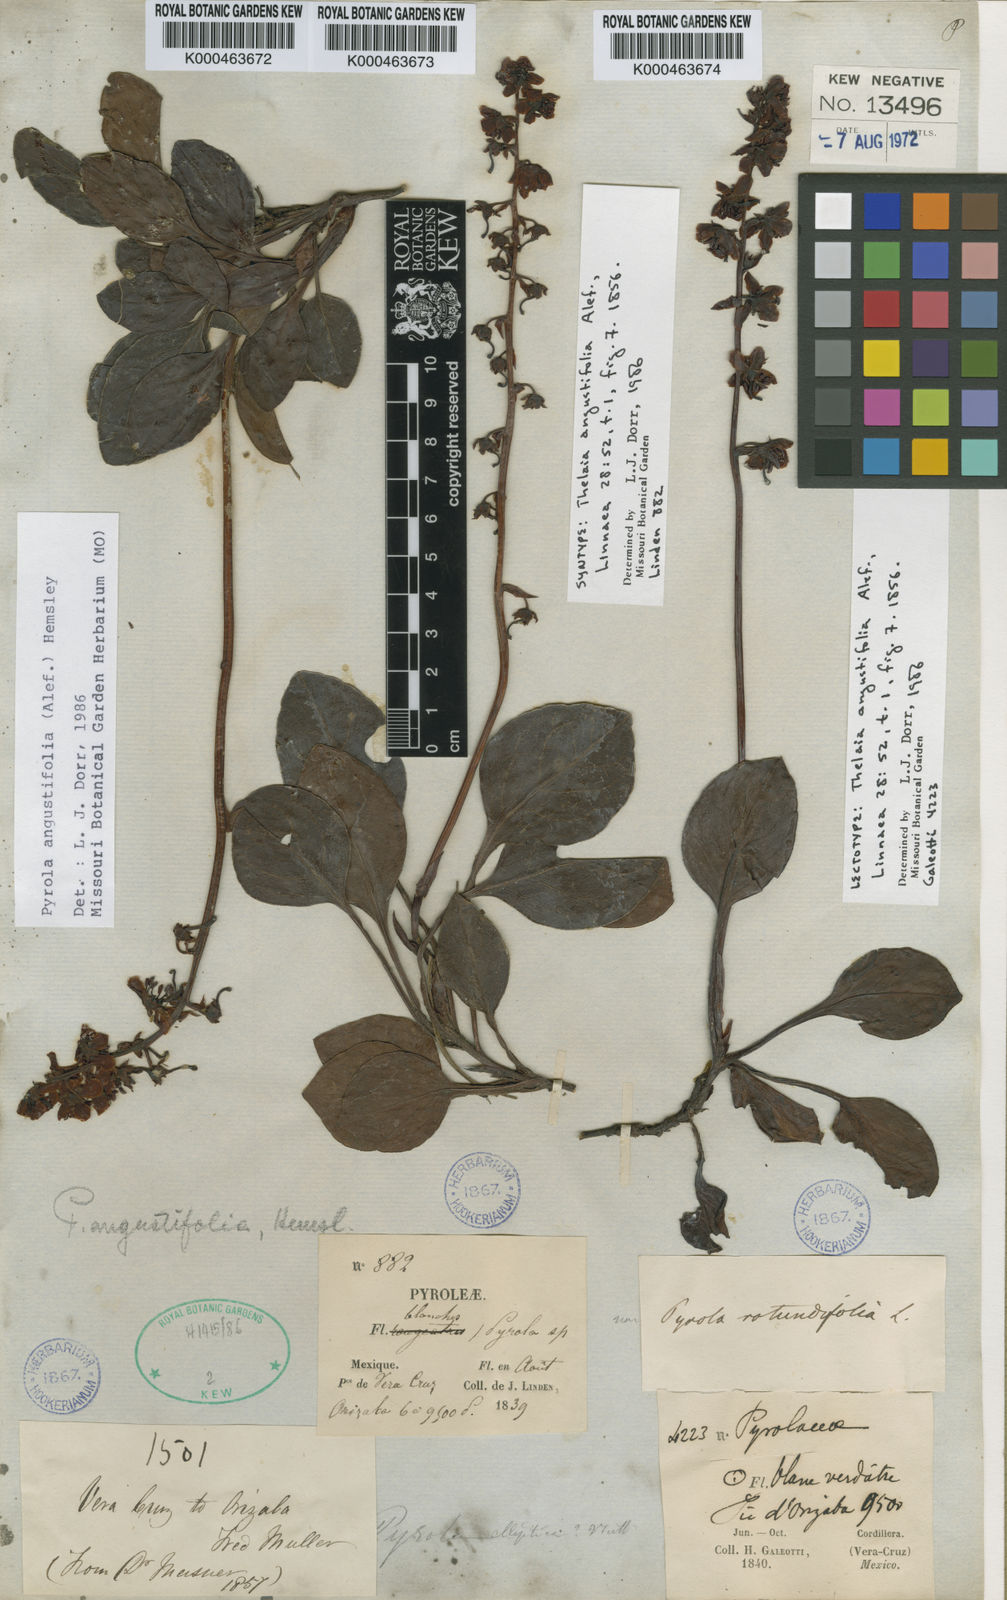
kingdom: Plantae
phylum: Tracheophyta
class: Magnoliopsida
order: Ericales
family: Ericaceae
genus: Pyrola
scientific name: Pyrola angustifolia
